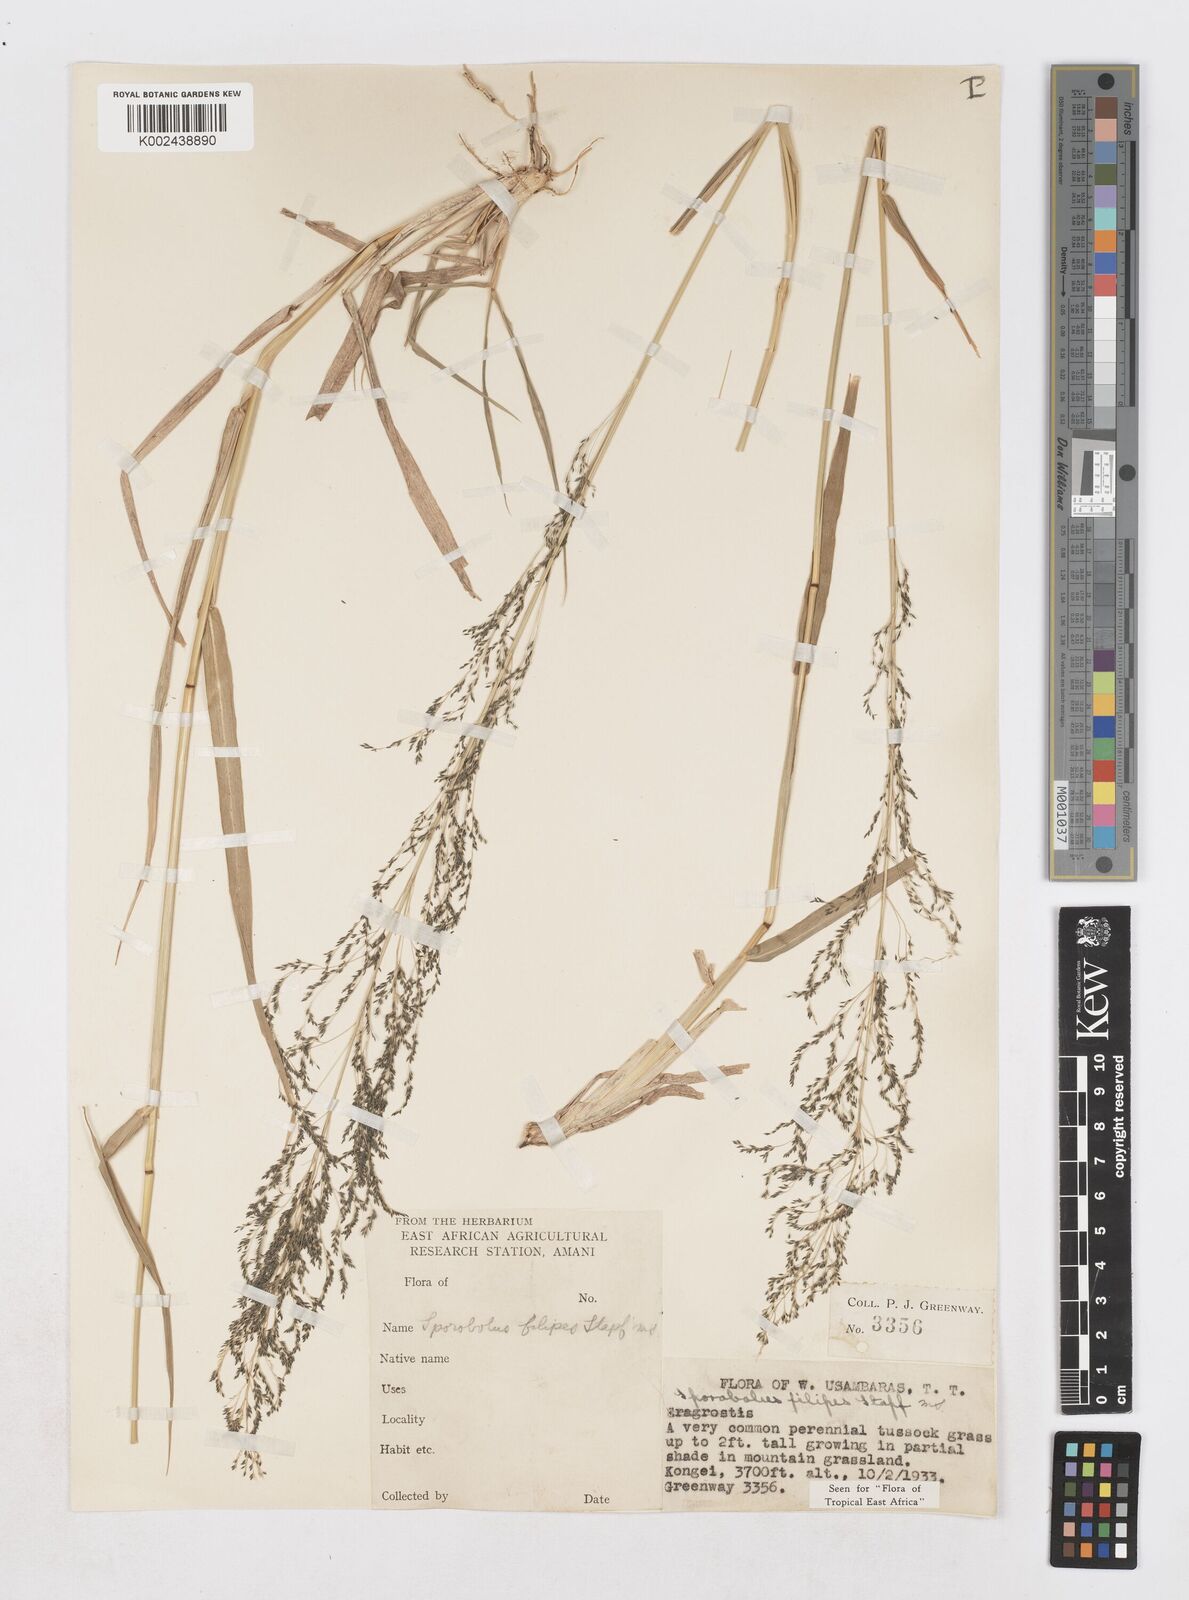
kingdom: Plantae
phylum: Tracheophyta
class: Liliopsida
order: Poales
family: Poaceae
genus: Sporobolus
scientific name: Sporobolus agrostoides
